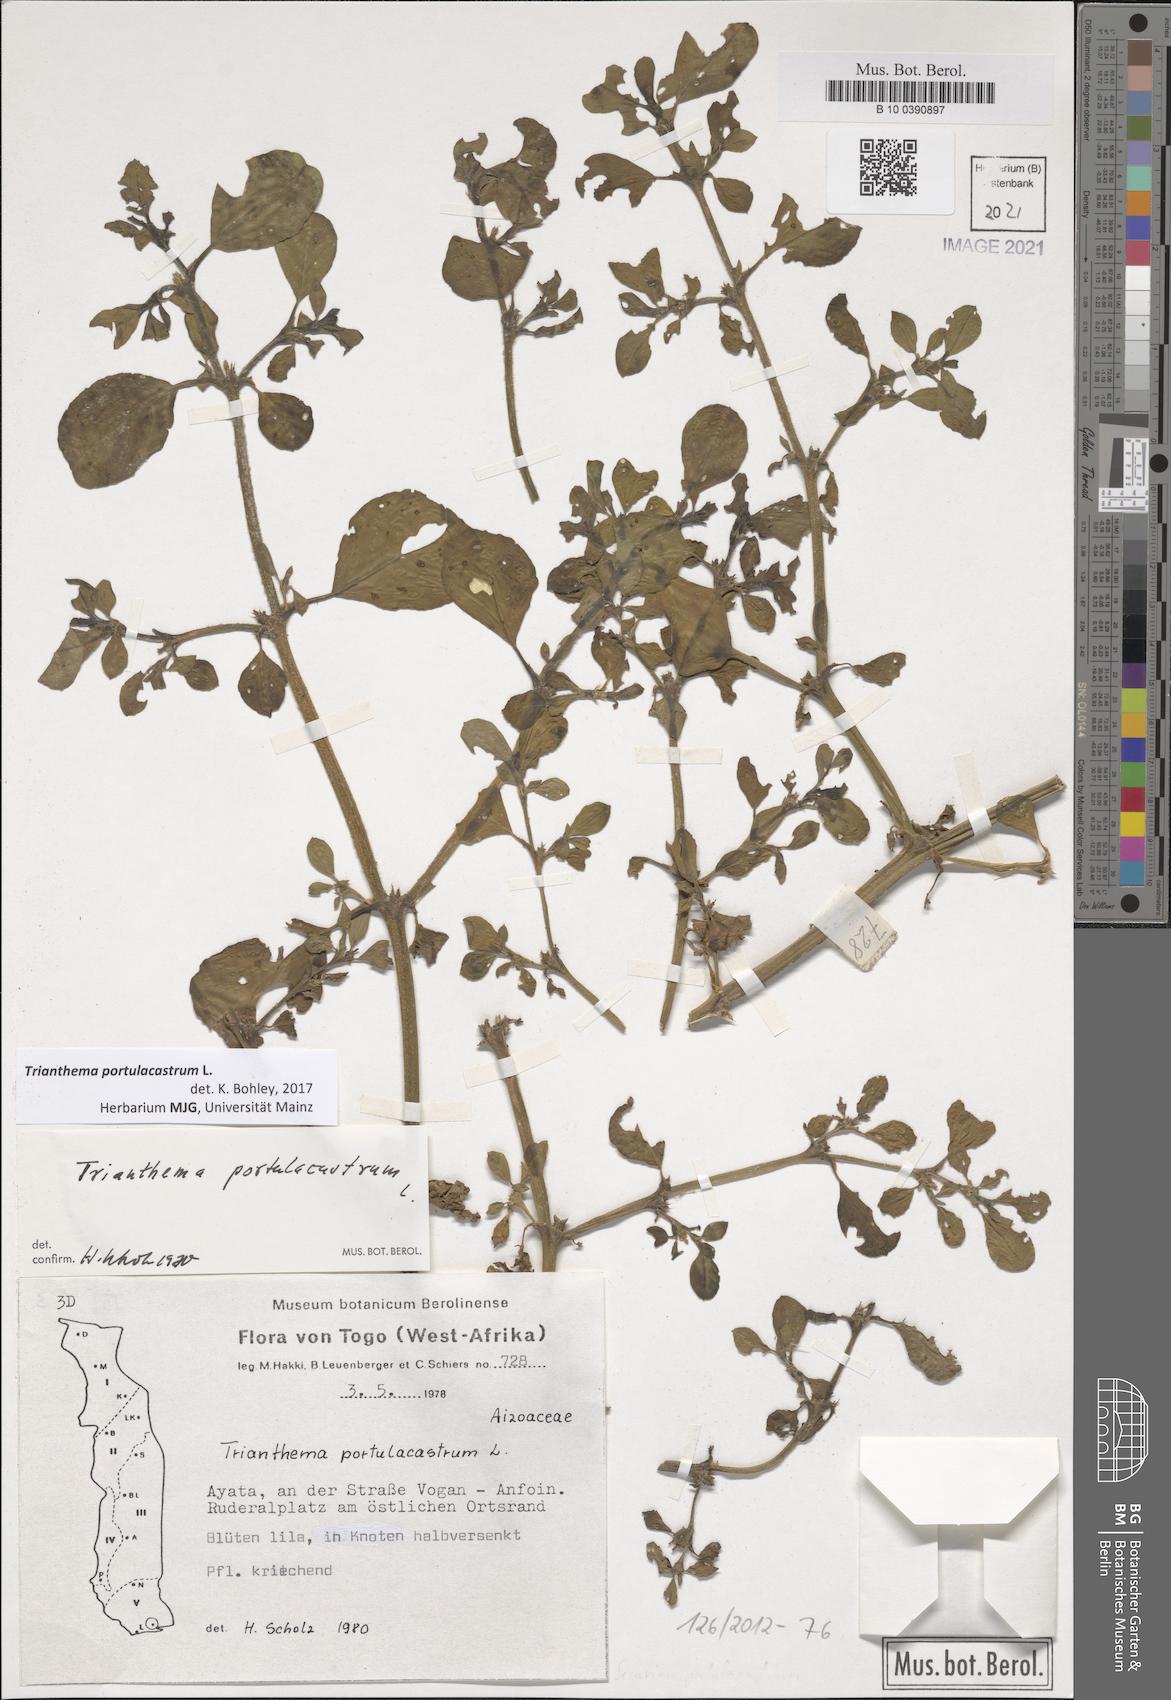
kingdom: Plantae
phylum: Tracheophyta
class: Magnoliopsida
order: Caryophyllales
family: Aizoaceae
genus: Trianthema
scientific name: Trianthema portulacastrum
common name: Desert horsepurslane
